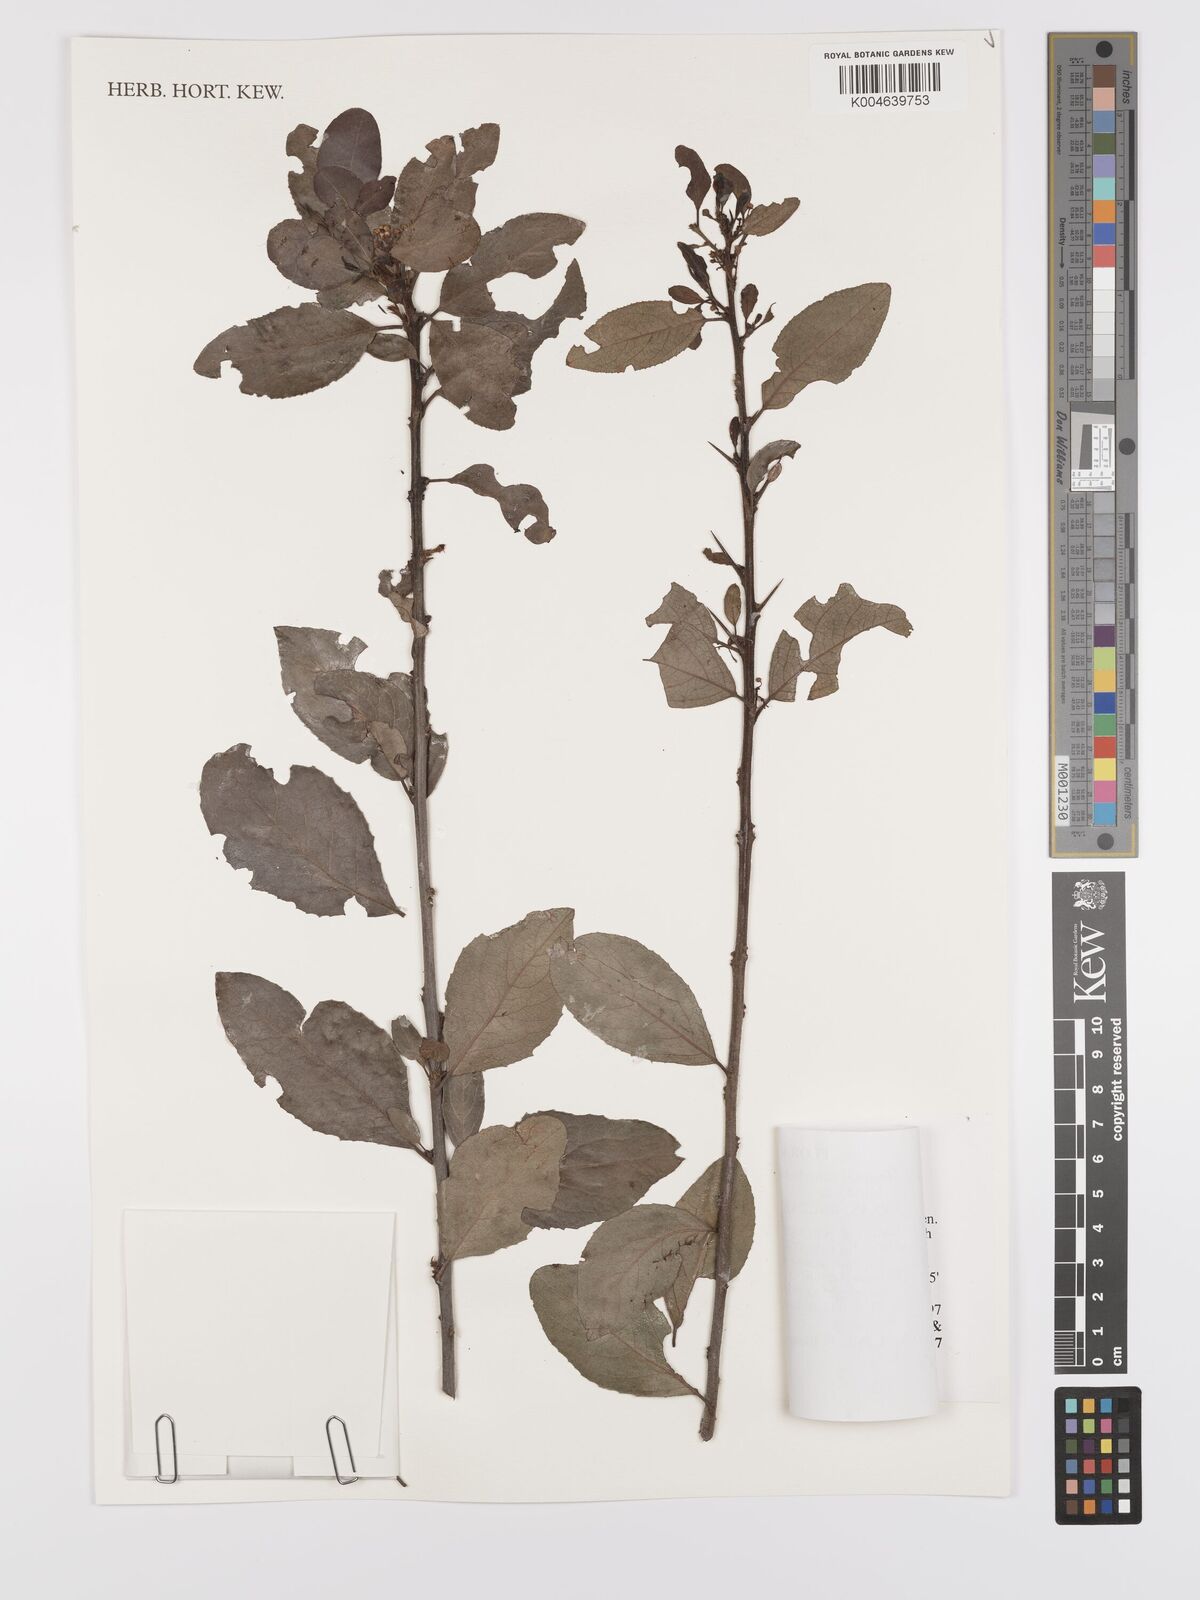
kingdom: Plantae
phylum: Tracheophyta
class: Magnoliopsida
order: Celastrales
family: Celastraceae
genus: Gymnosporia
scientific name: Gymnosporia putterlickioides
